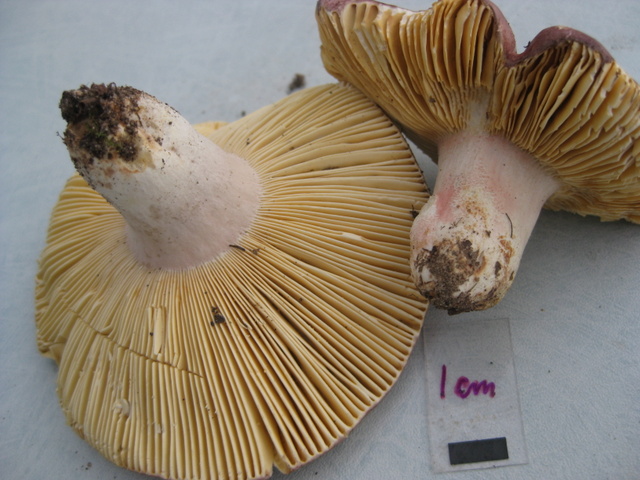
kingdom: Fungi
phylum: Basidiomycota
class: Agaricomycetes
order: Russulales
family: Russulaceae
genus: Russula
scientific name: Russula olivacea
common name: stor skørhat
